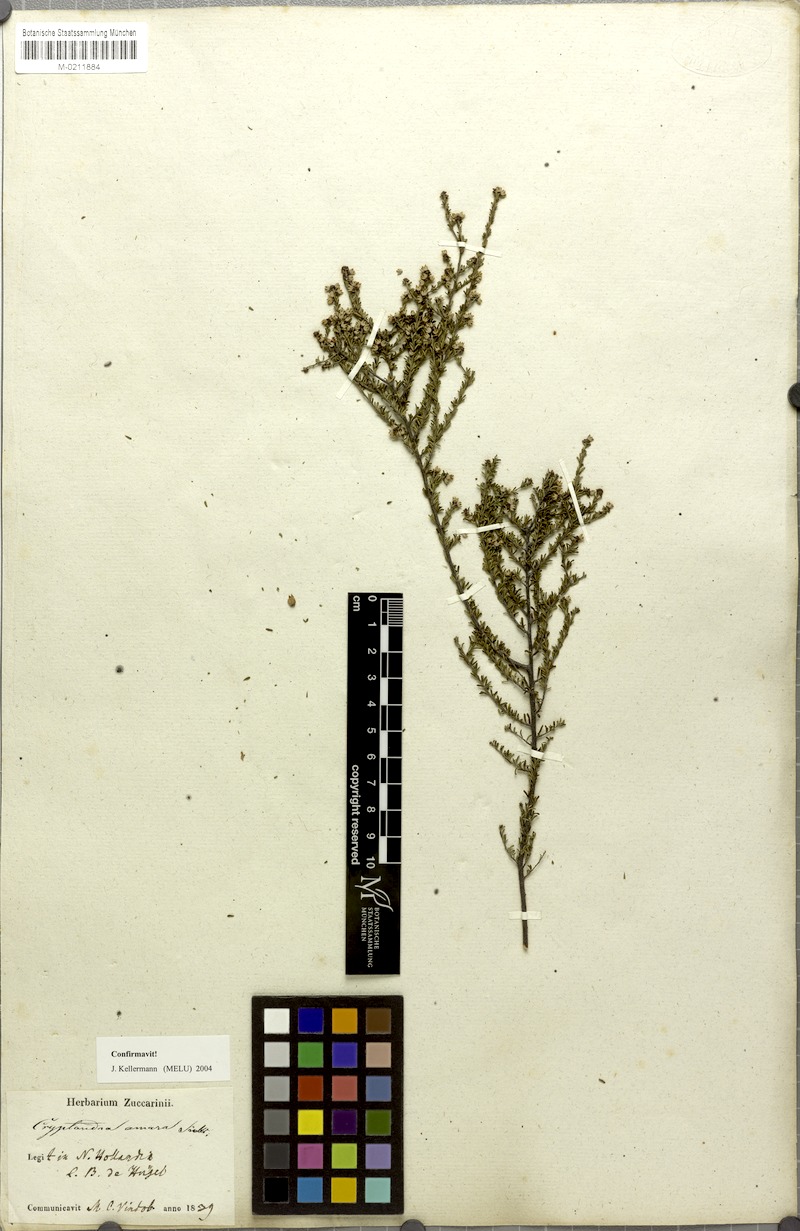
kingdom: Plantae
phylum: Tracheophyta
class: Magnoliopsida
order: Rosales
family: Rhamnaceae
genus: Cryptandra
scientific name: Cryptandra amara
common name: Bitter cryptandra
